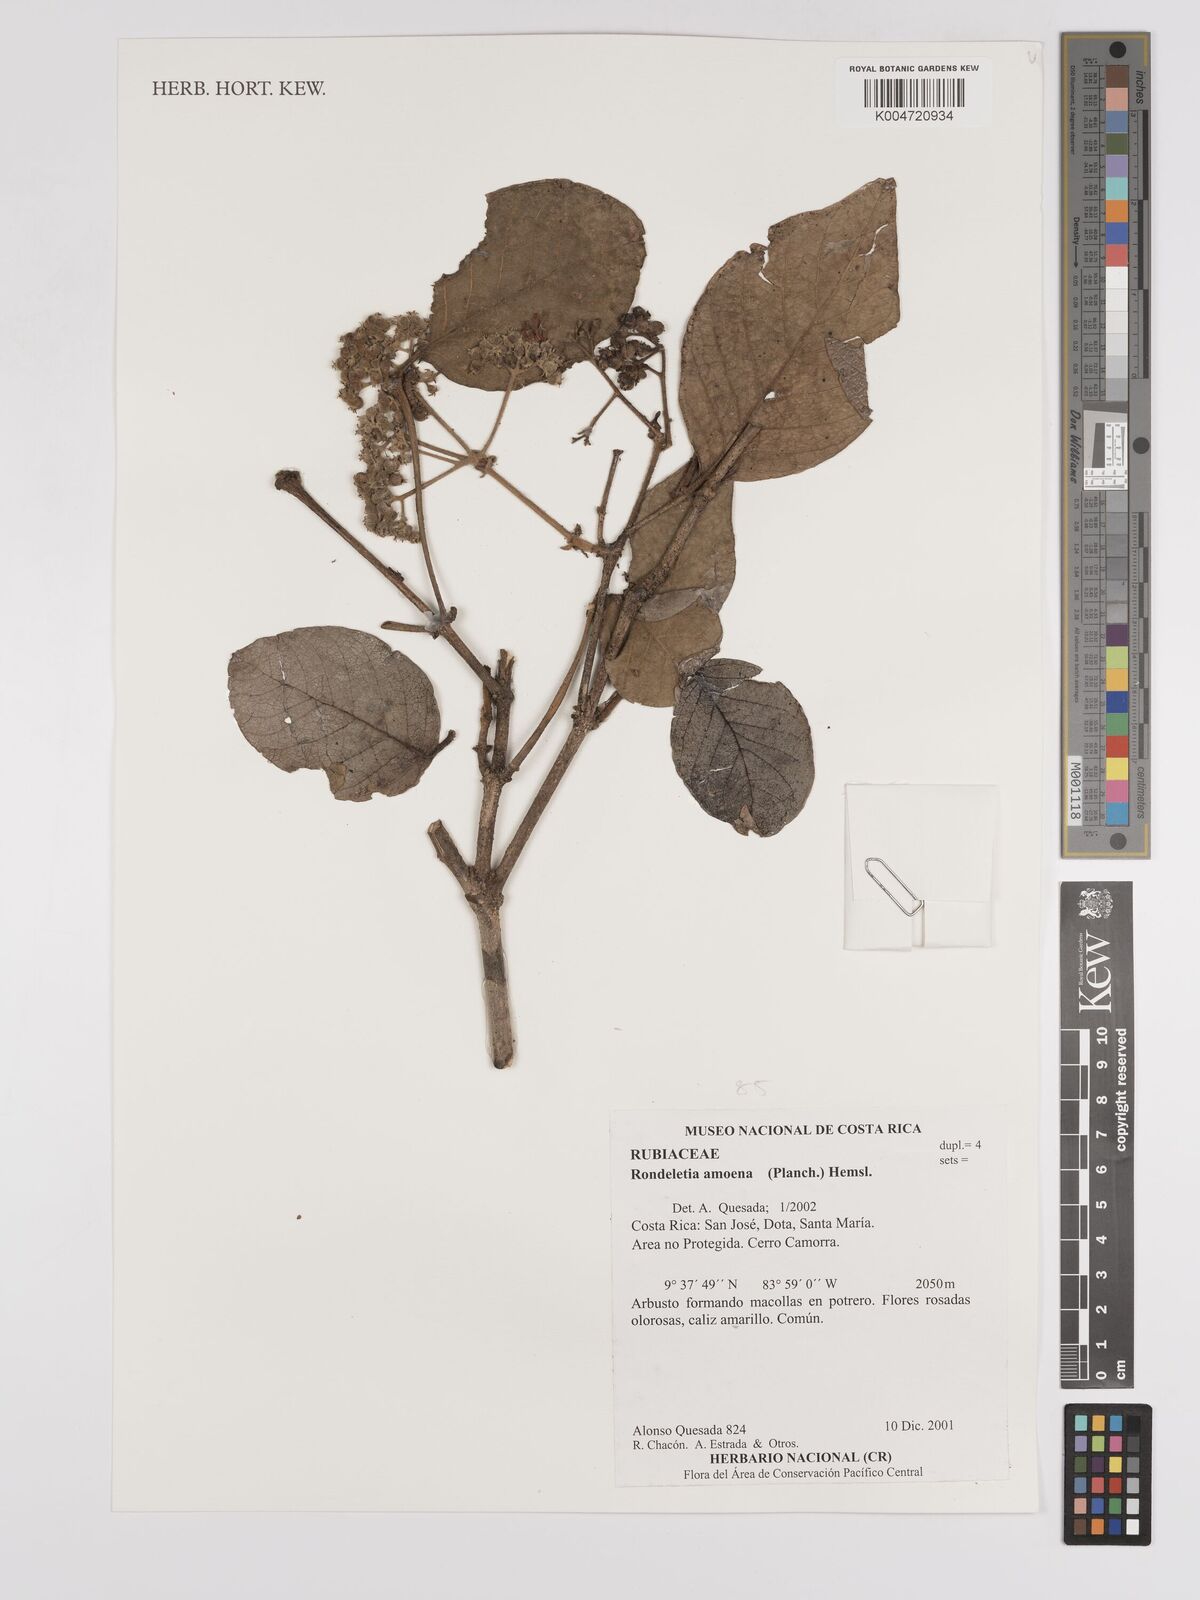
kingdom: Plantae
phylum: Tracheophyta
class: Magnoliopsida
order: Gentianales
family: Rubiaceae
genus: Rogiera
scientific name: Rogiera amoena
